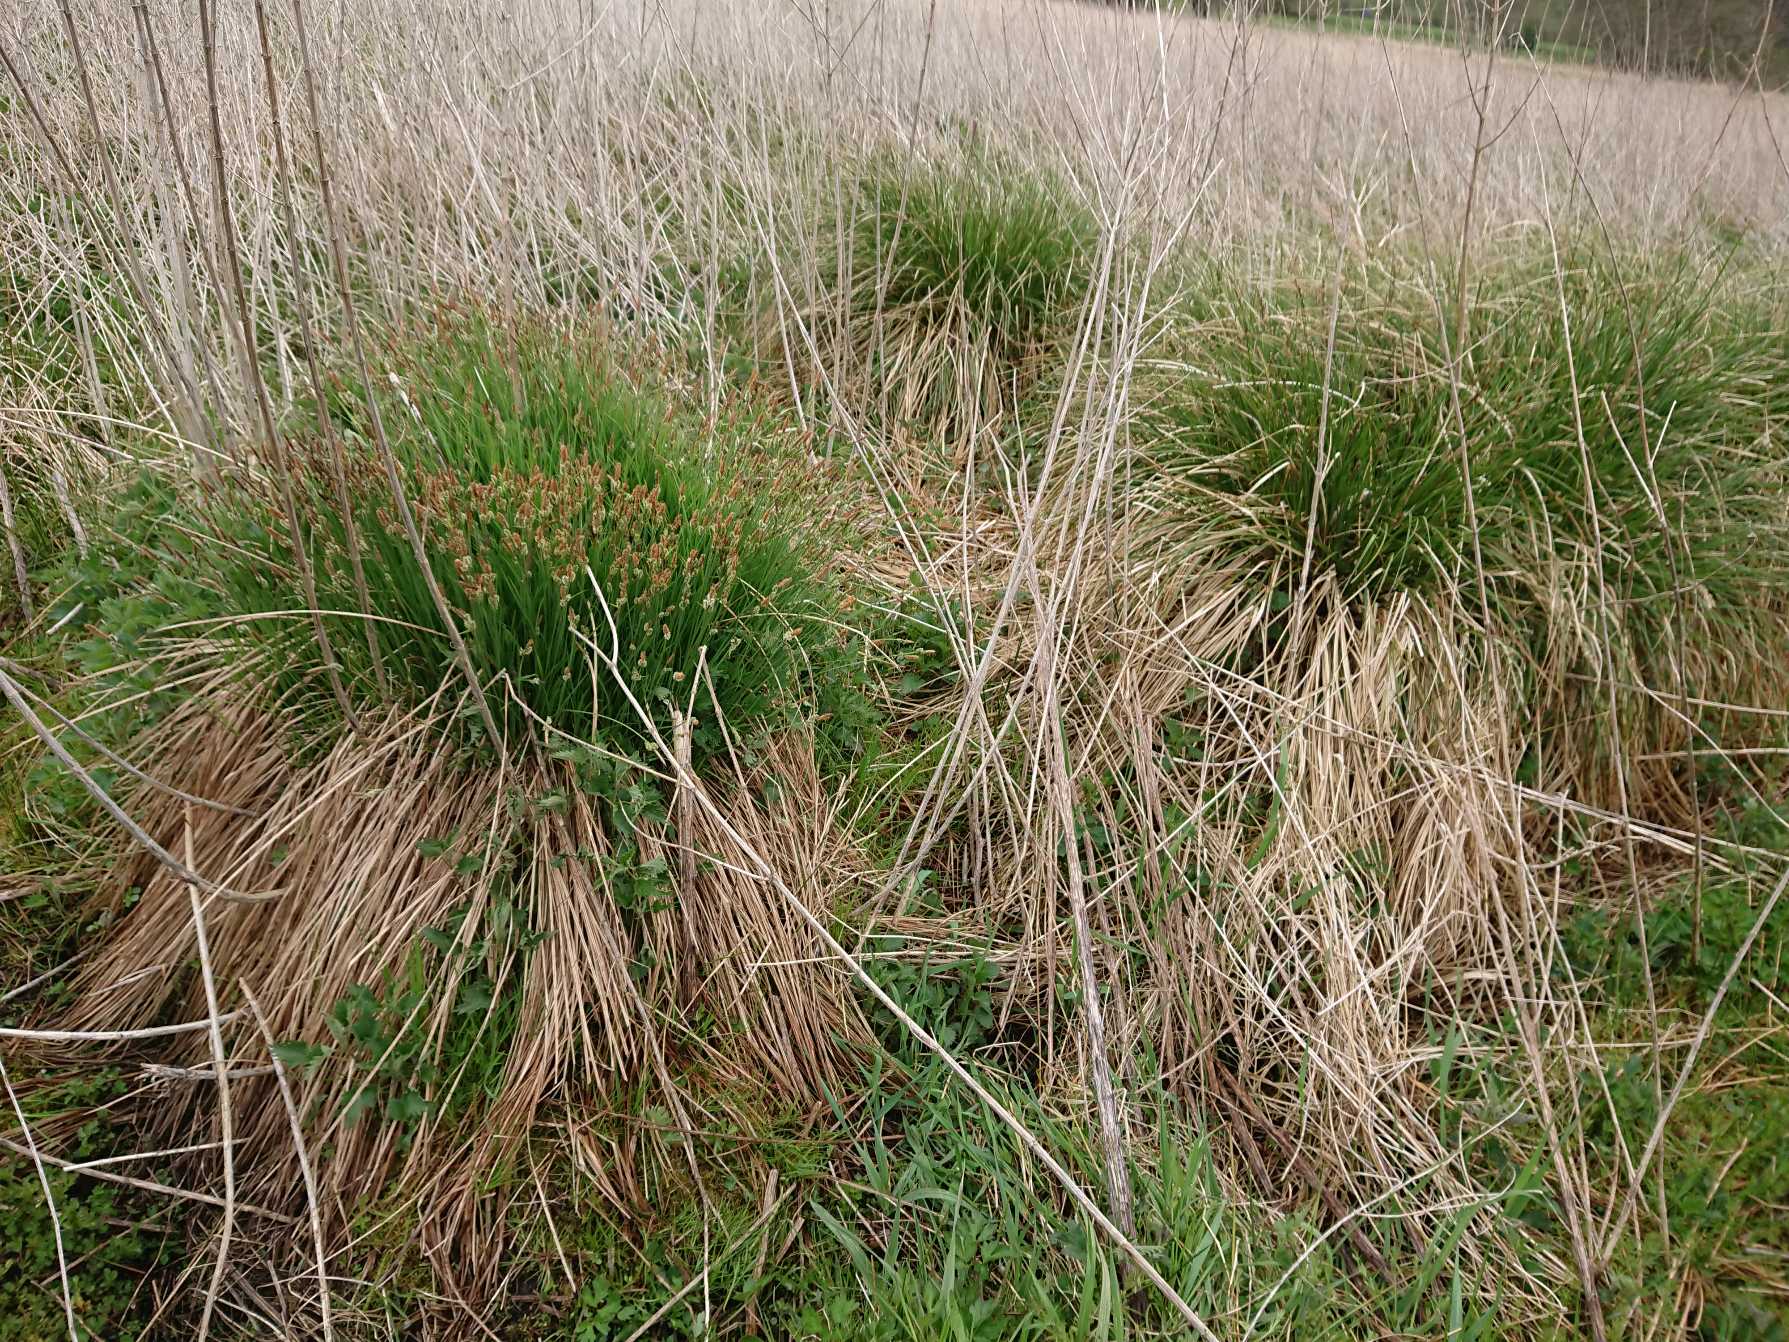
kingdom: Plantae
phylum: Tracheophyta
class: Liliopsida
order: Poales
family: Cyperaceae
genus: Carex
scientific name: Carex cespitosa
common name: Tue-star
